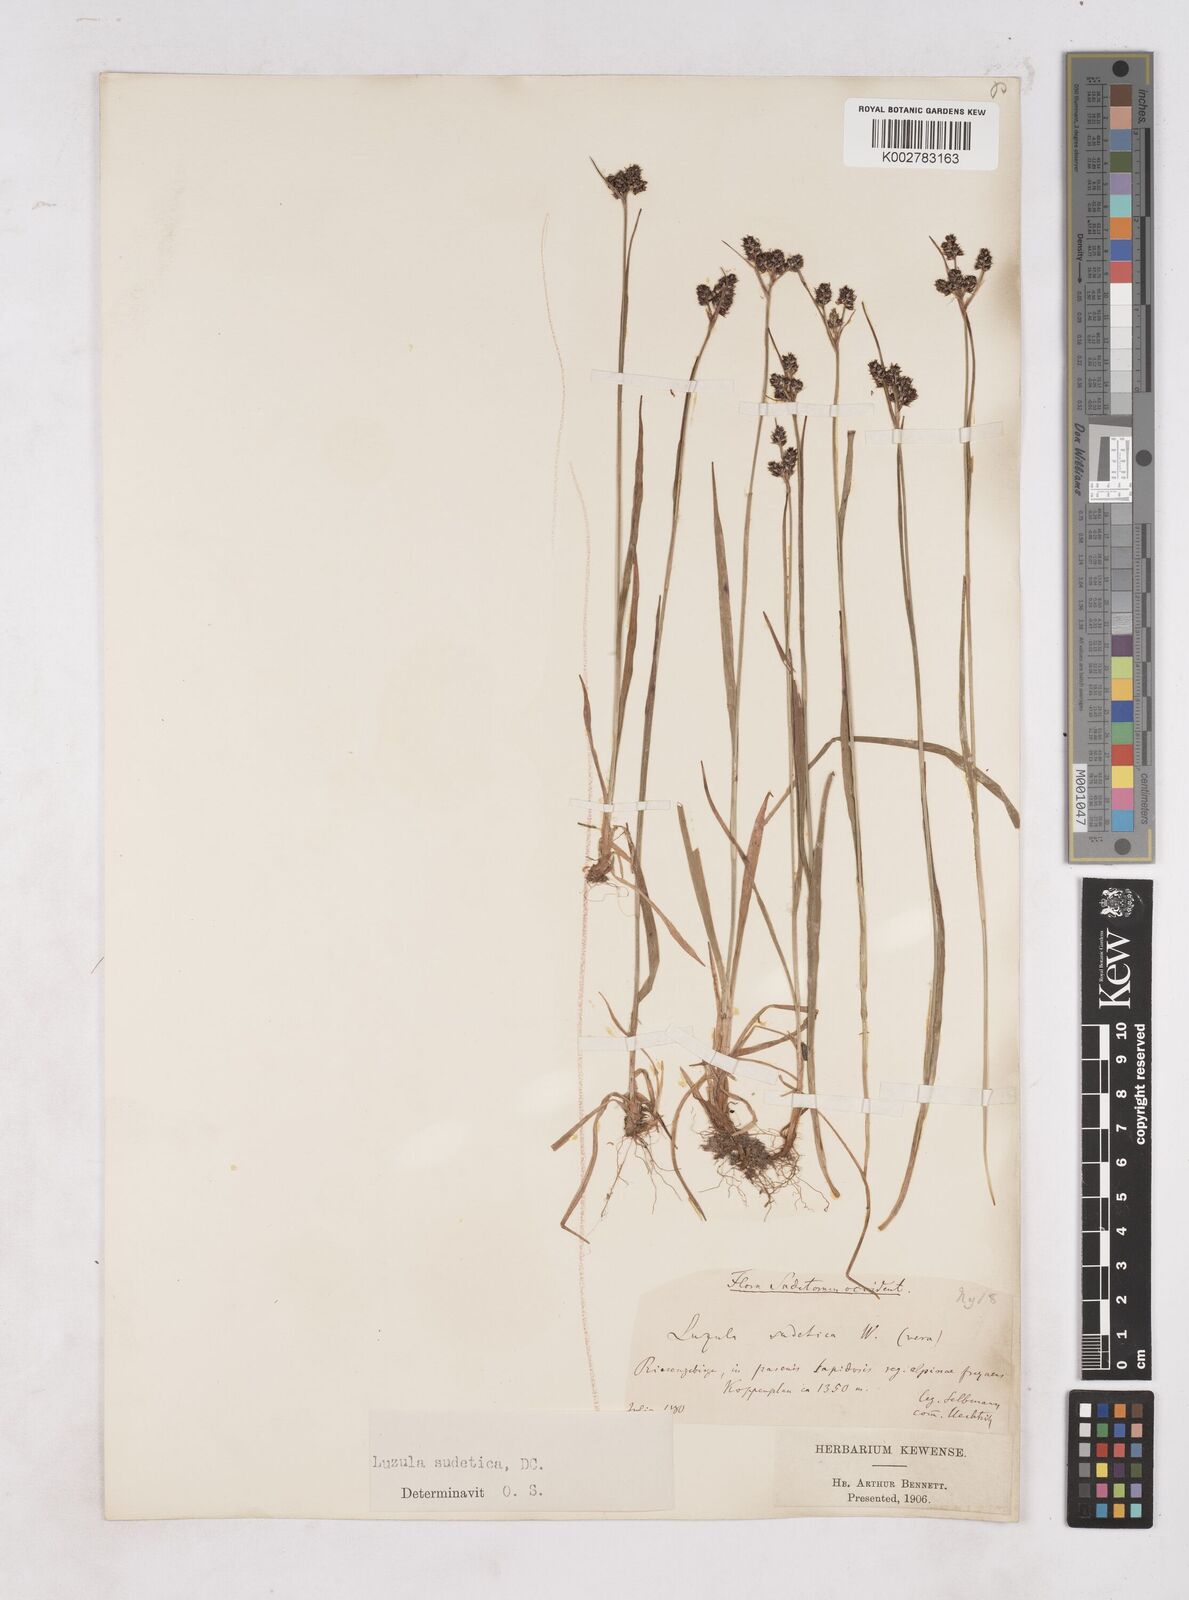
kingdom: Plantae
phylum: Tracheophyta
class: Liliopsida
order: Poales
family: Juncaceae
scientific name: Juncaceae
